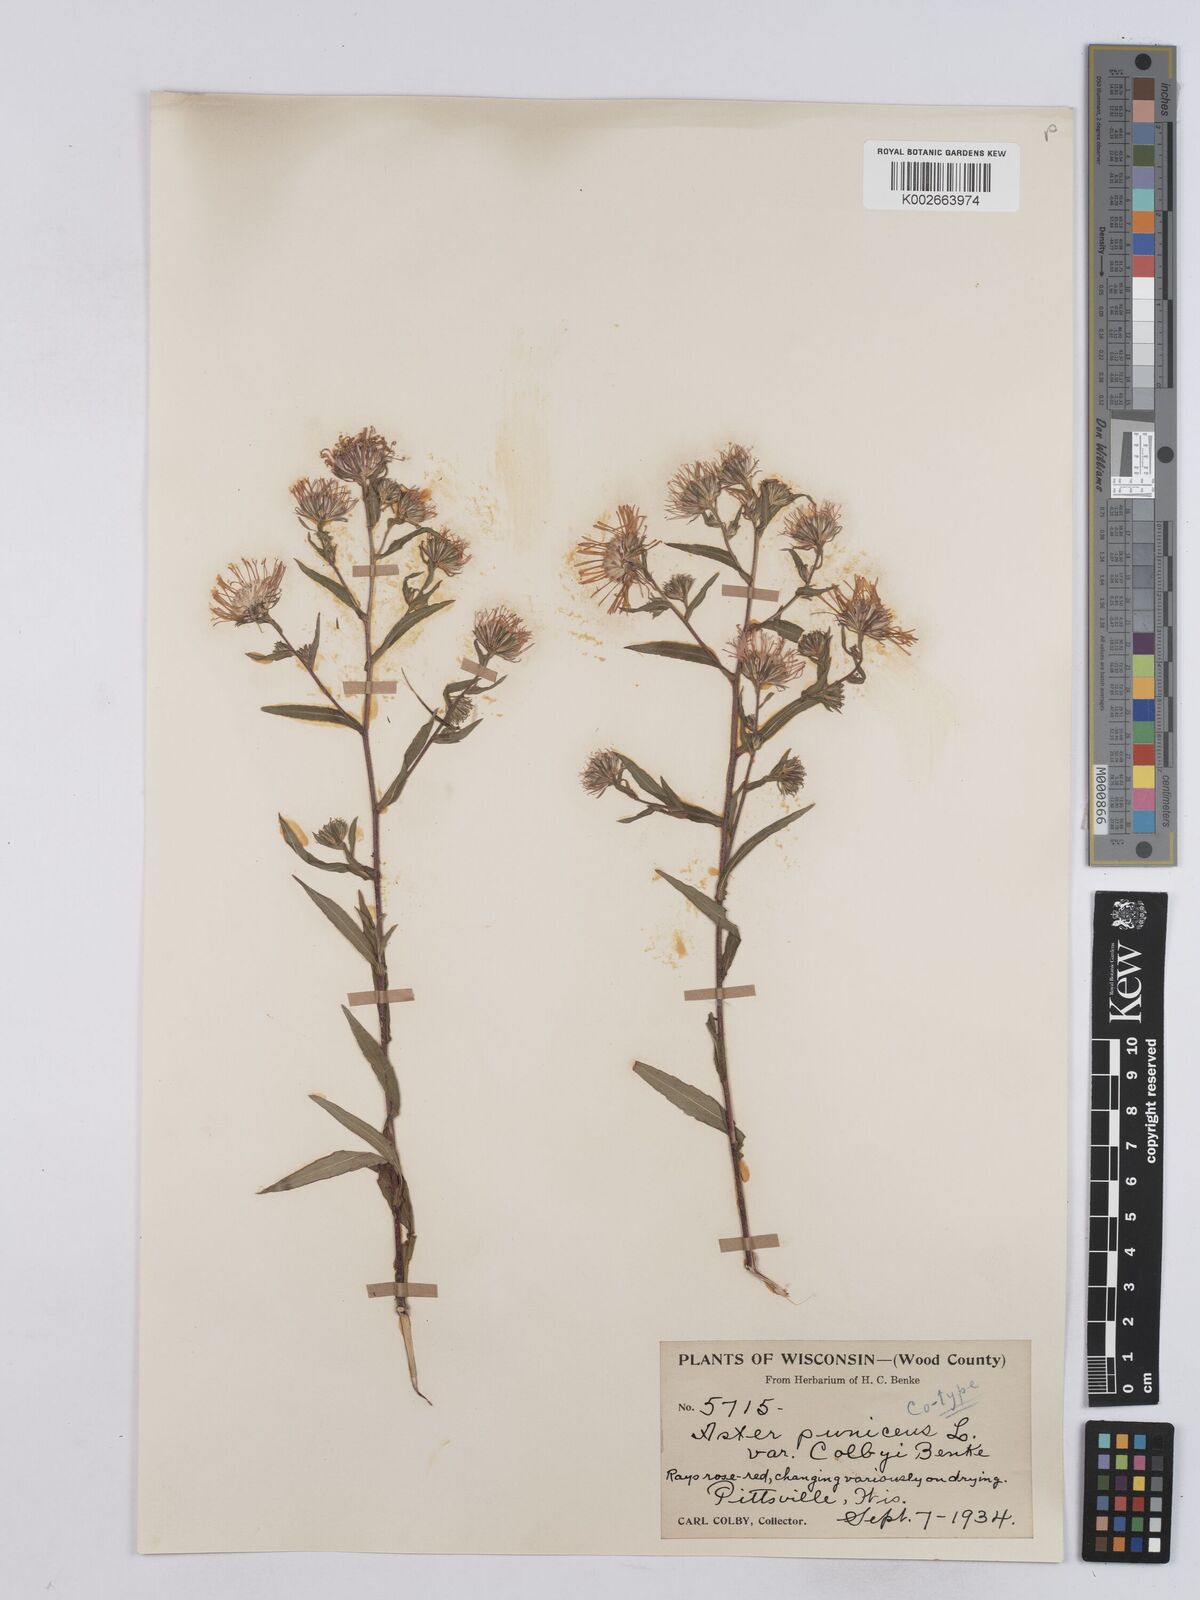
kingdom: Plantae
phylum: Tracheophyta
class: Magnoliopsida
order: Asterales
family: Asteraceae
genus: Symphyotrichum
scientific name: Symphyotrichum puniceum
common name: Bog aster
